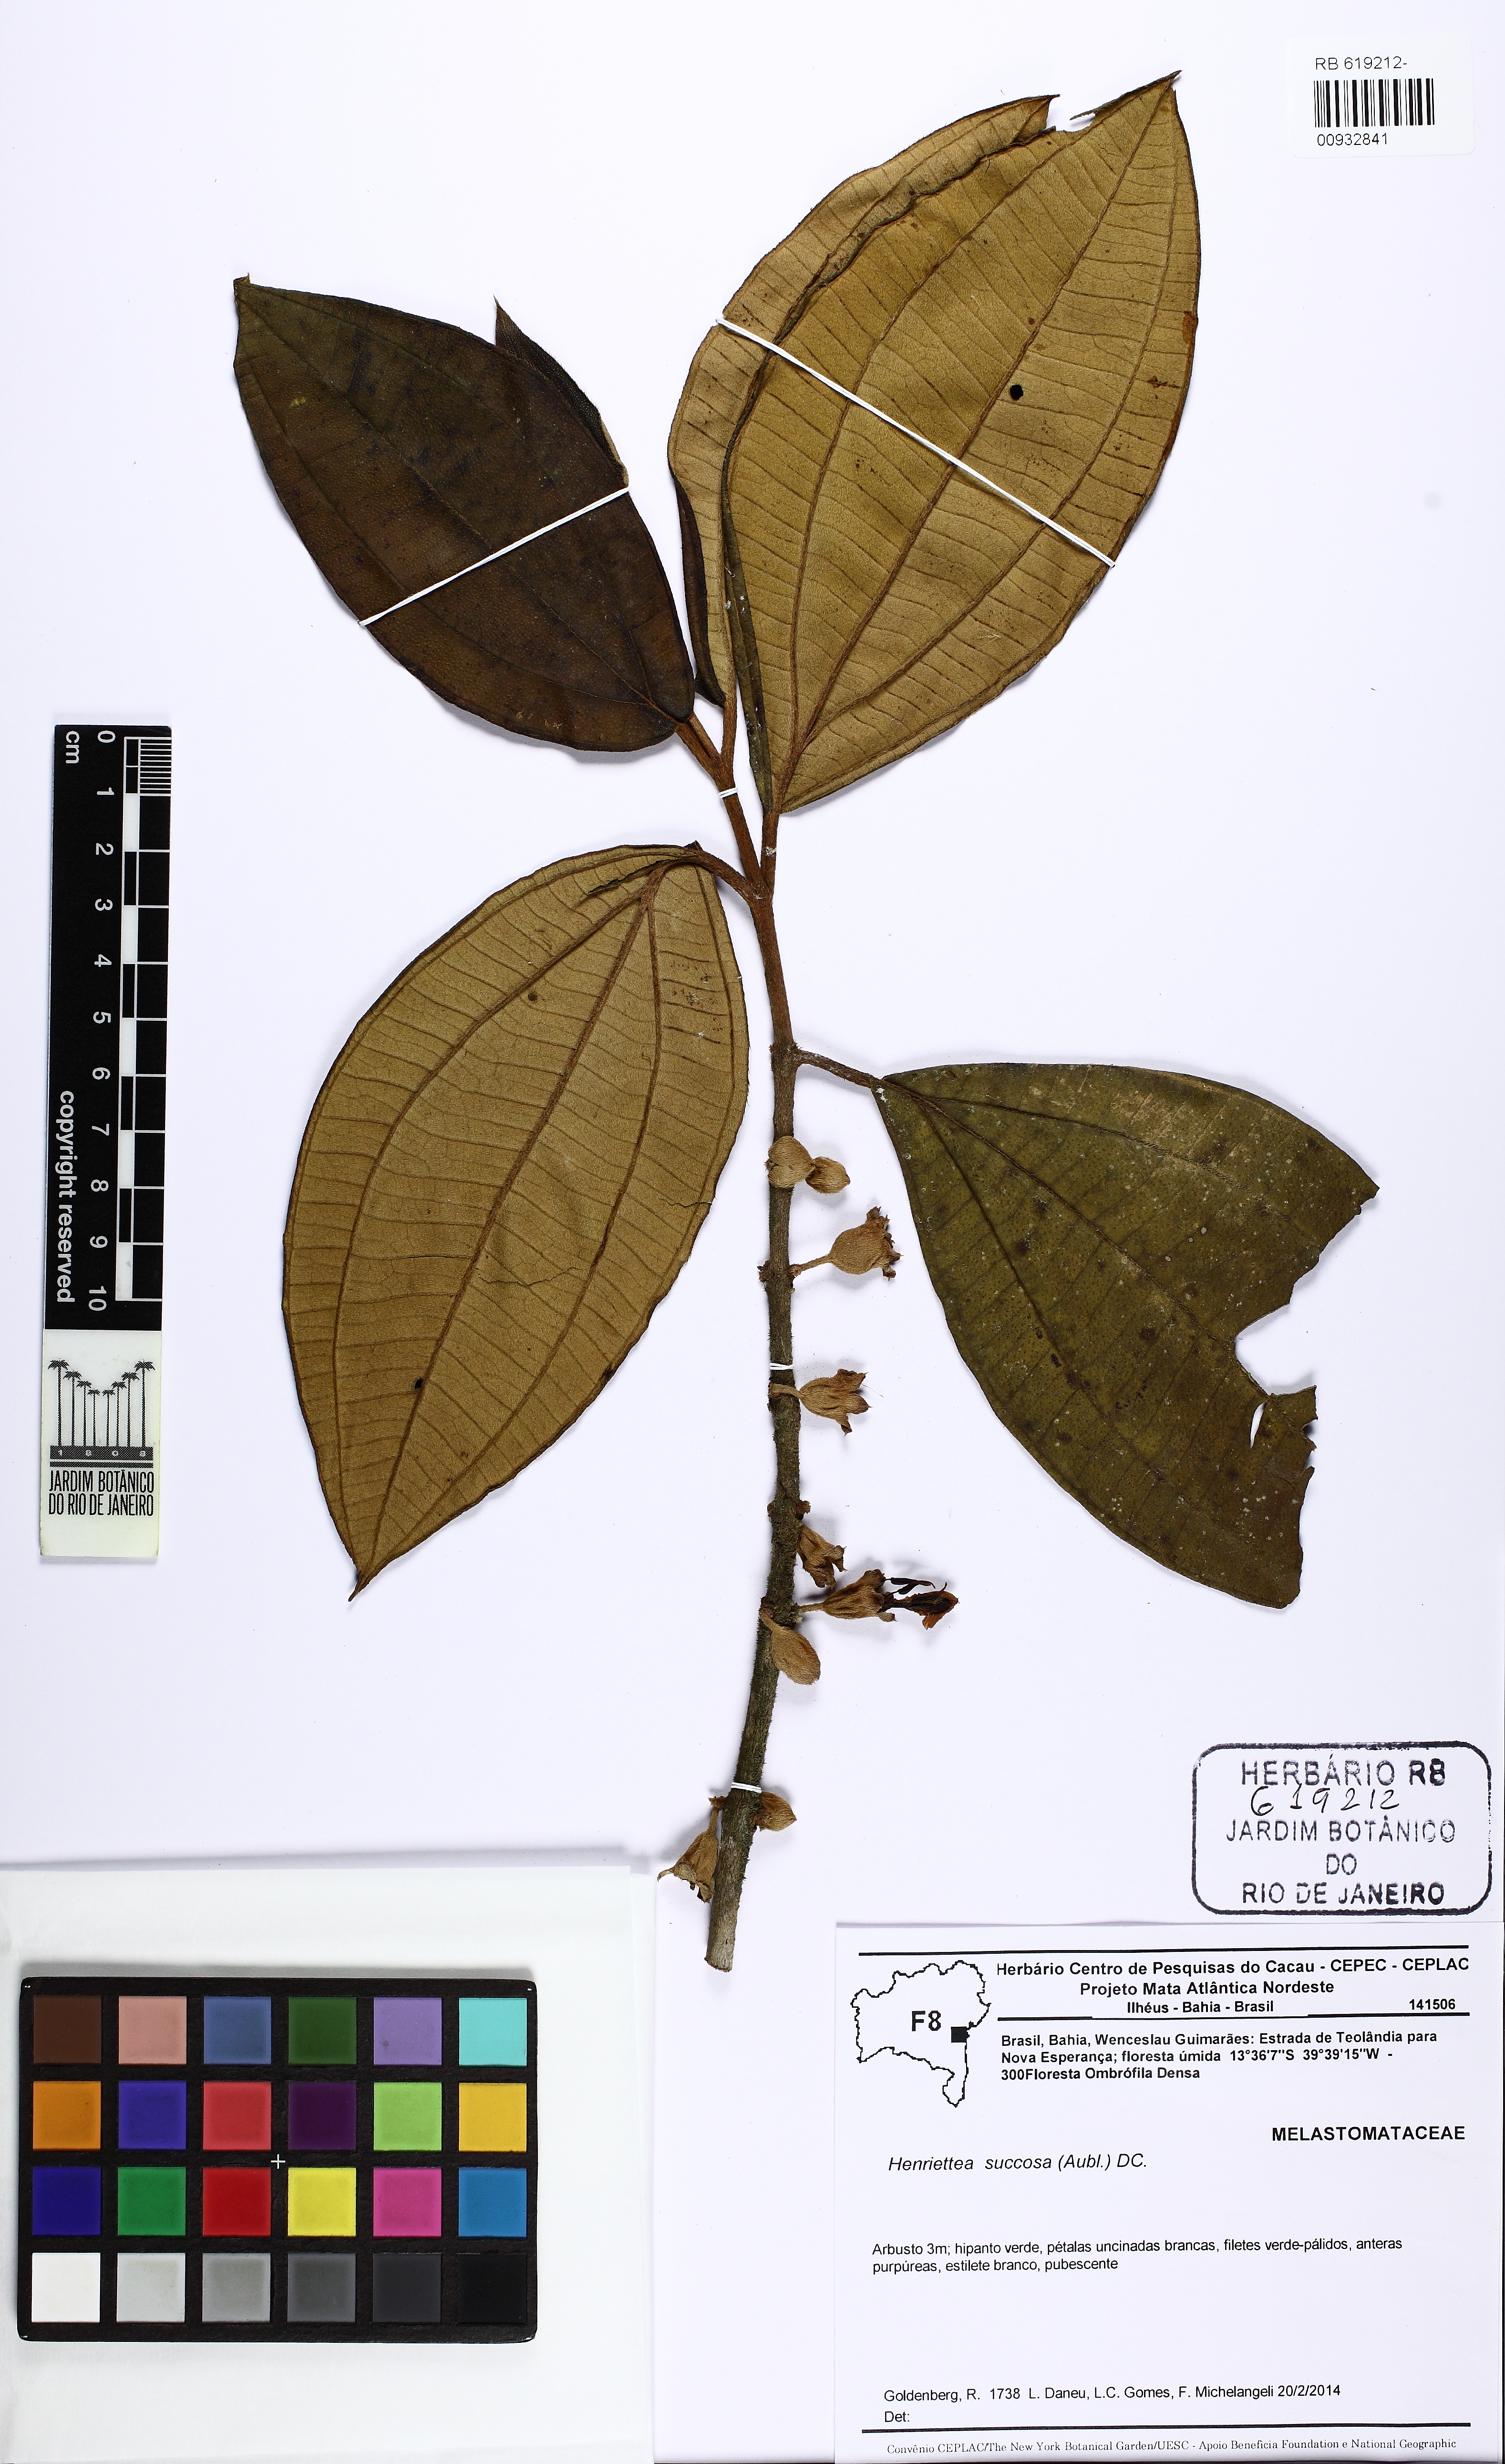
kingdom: Plantae
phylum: Tracheophyta
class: Magnoliopsida
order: Myrtales
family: Melastomataceae
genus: Henriettea
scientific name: Henriettea succosa
